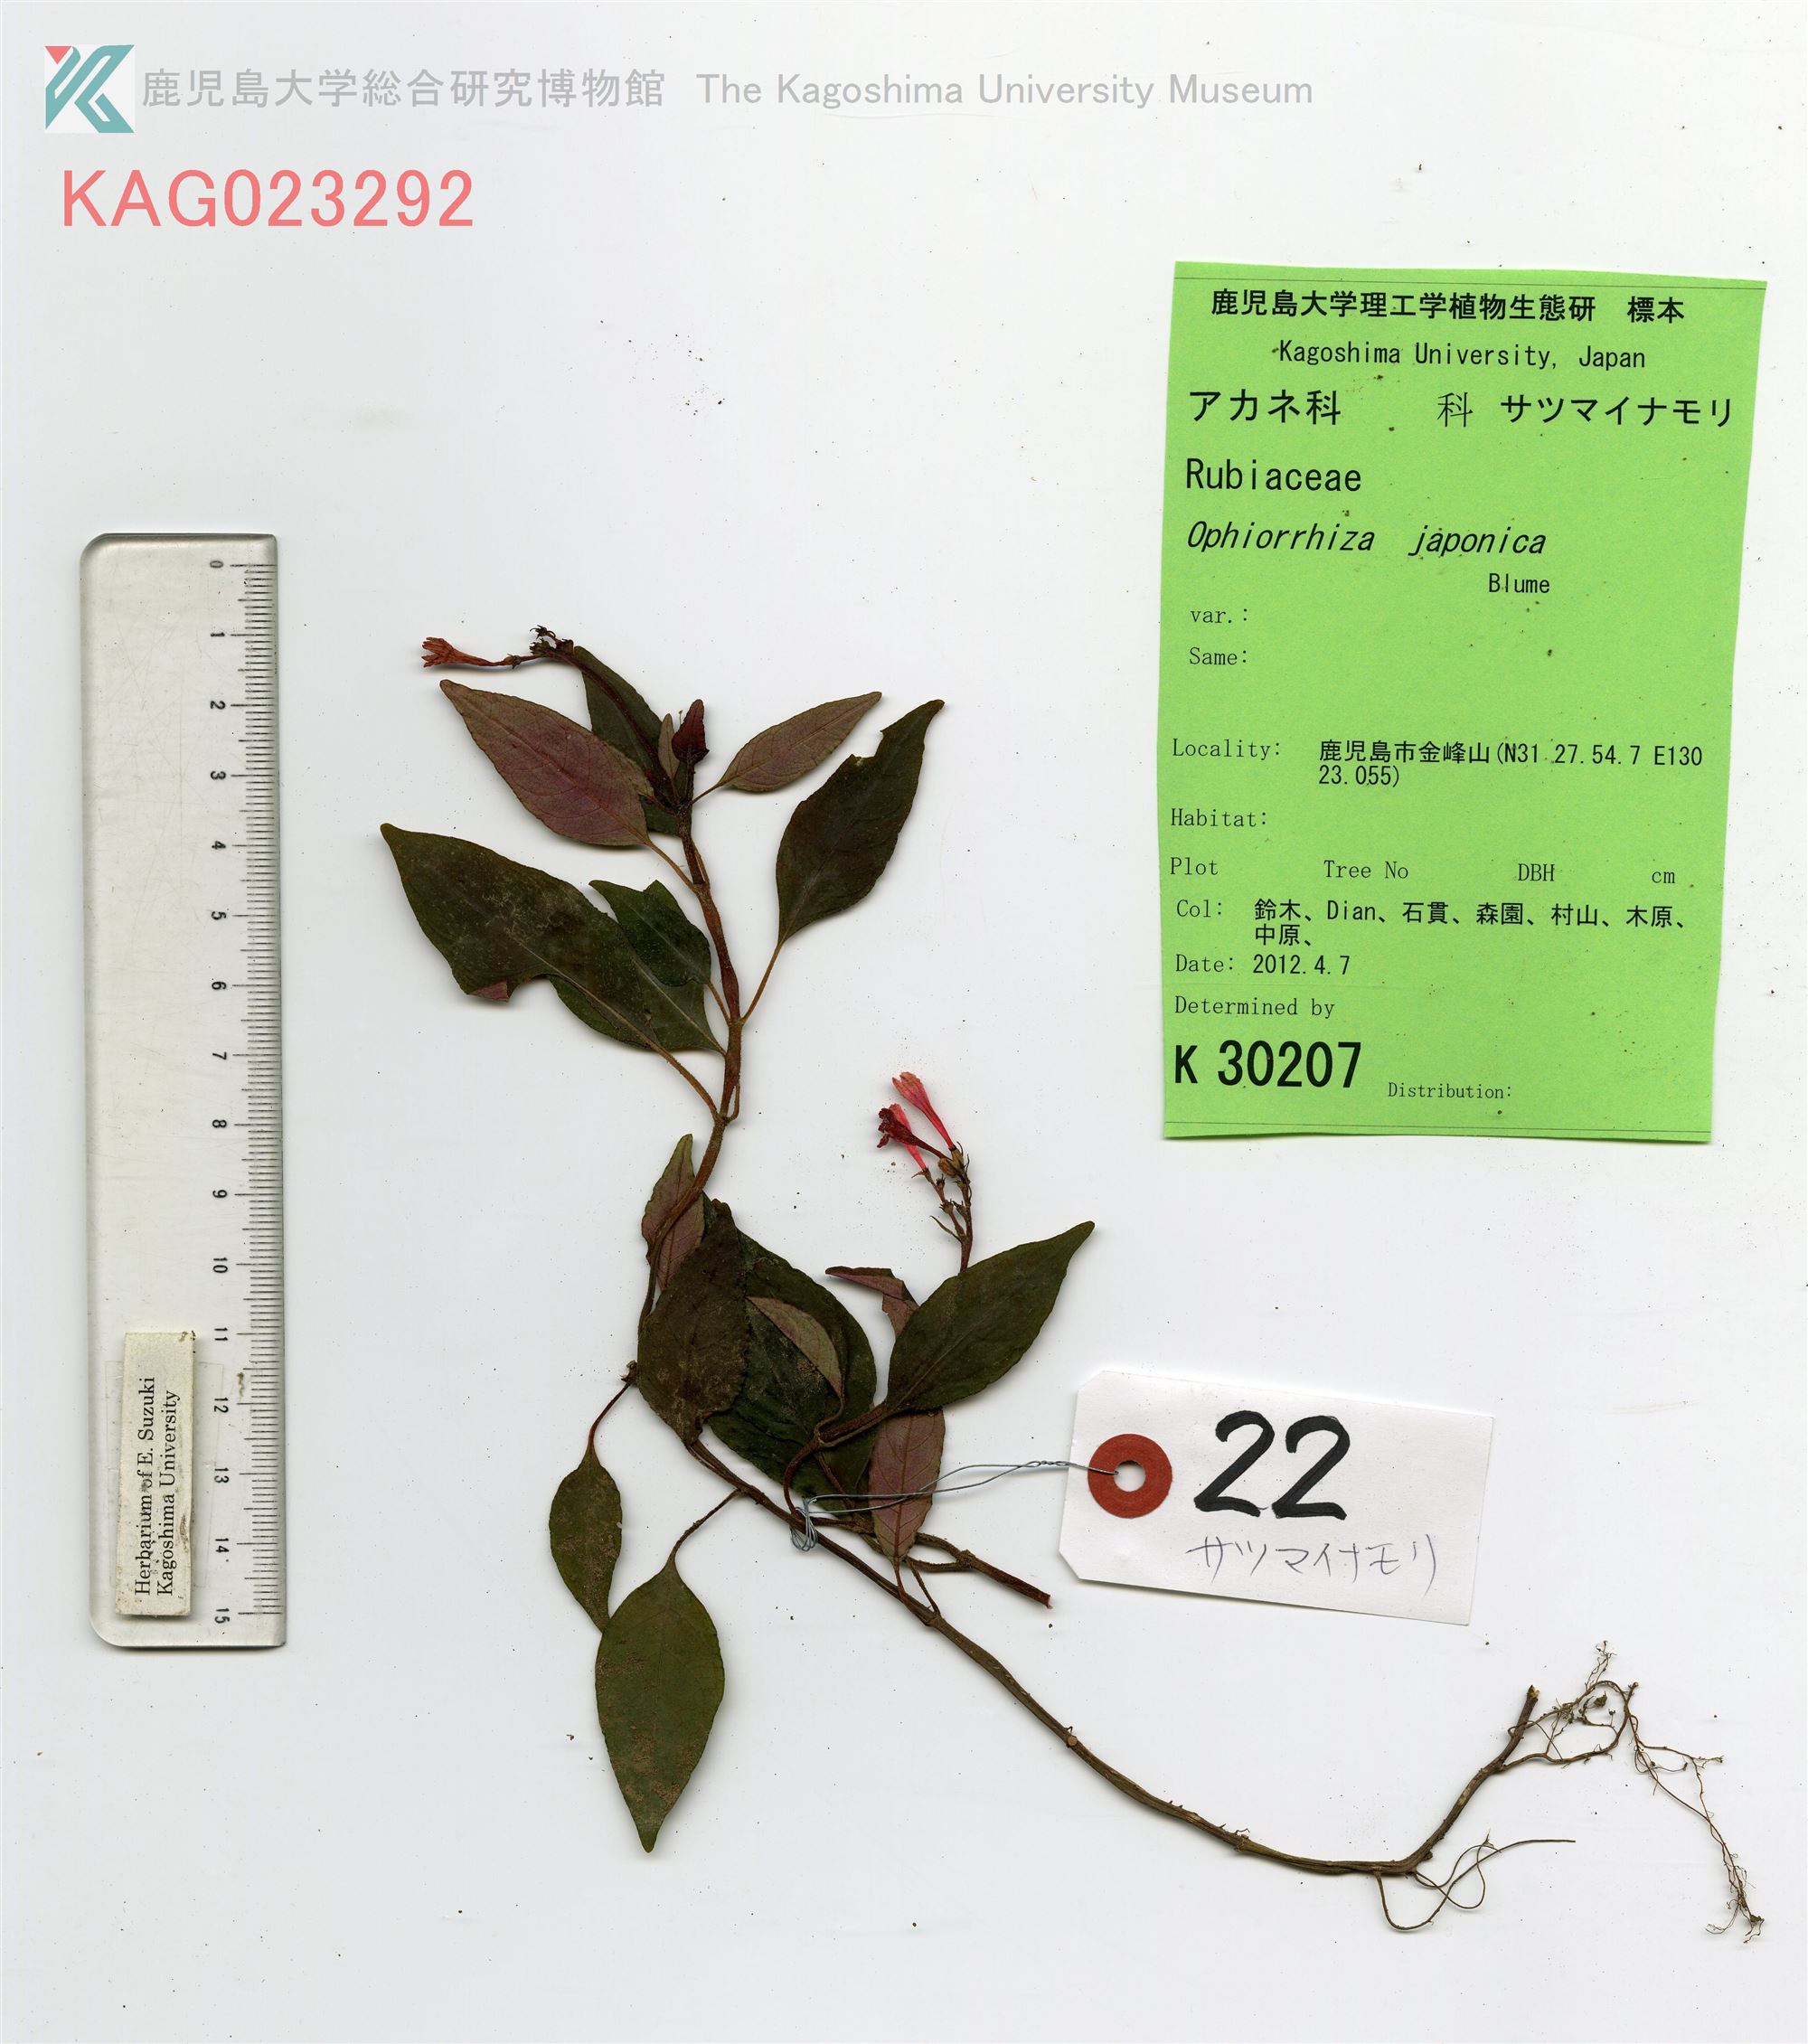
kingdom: Plantae
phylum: Tracheophyta
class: Magnoliopsida
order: Gentianales
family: Rubiaceae
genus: Ophiorrhiza
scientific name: Ophiorrhiza japonica
